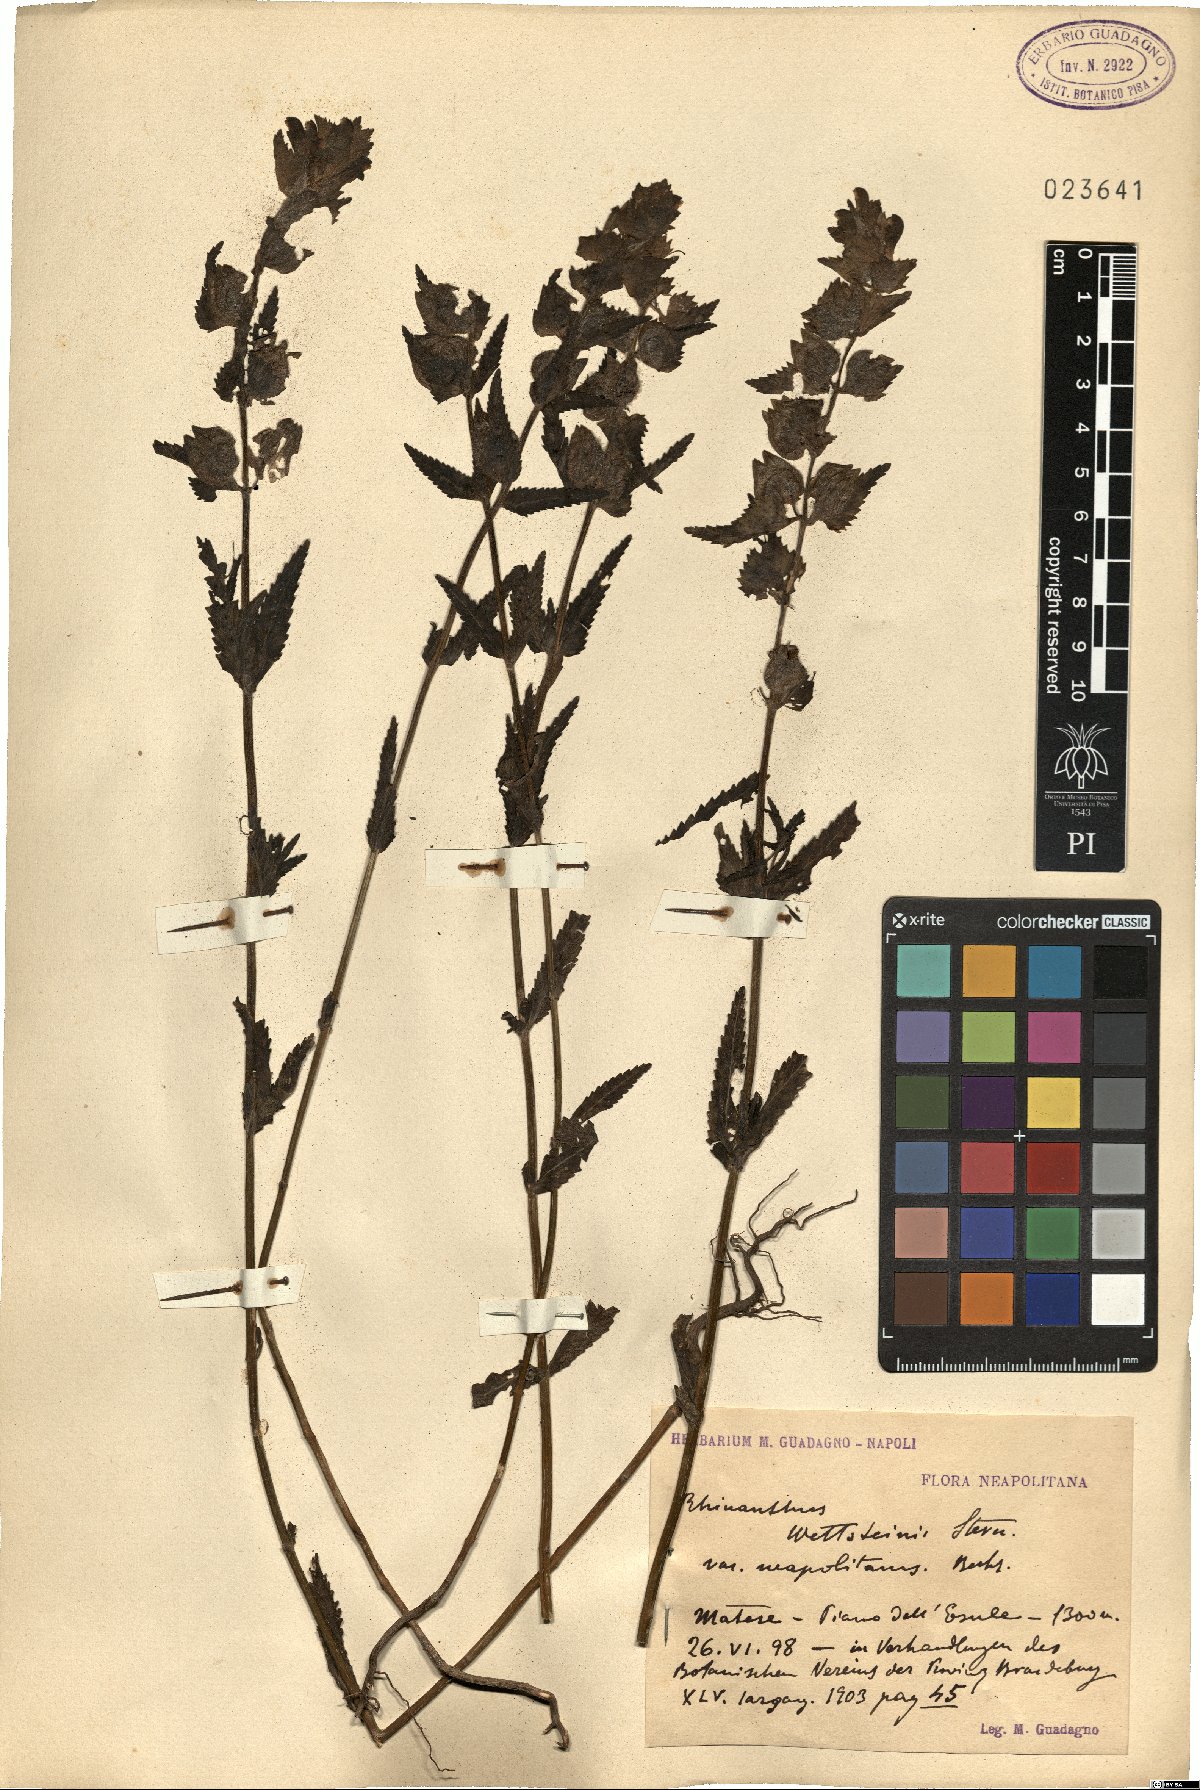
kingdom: Plantae
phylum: Tracheophyta
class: Magnoliopsida
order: Lamiales
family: Orobanchaceae
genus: Rhinanthus
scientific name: Rhinanthus wettsteinii
